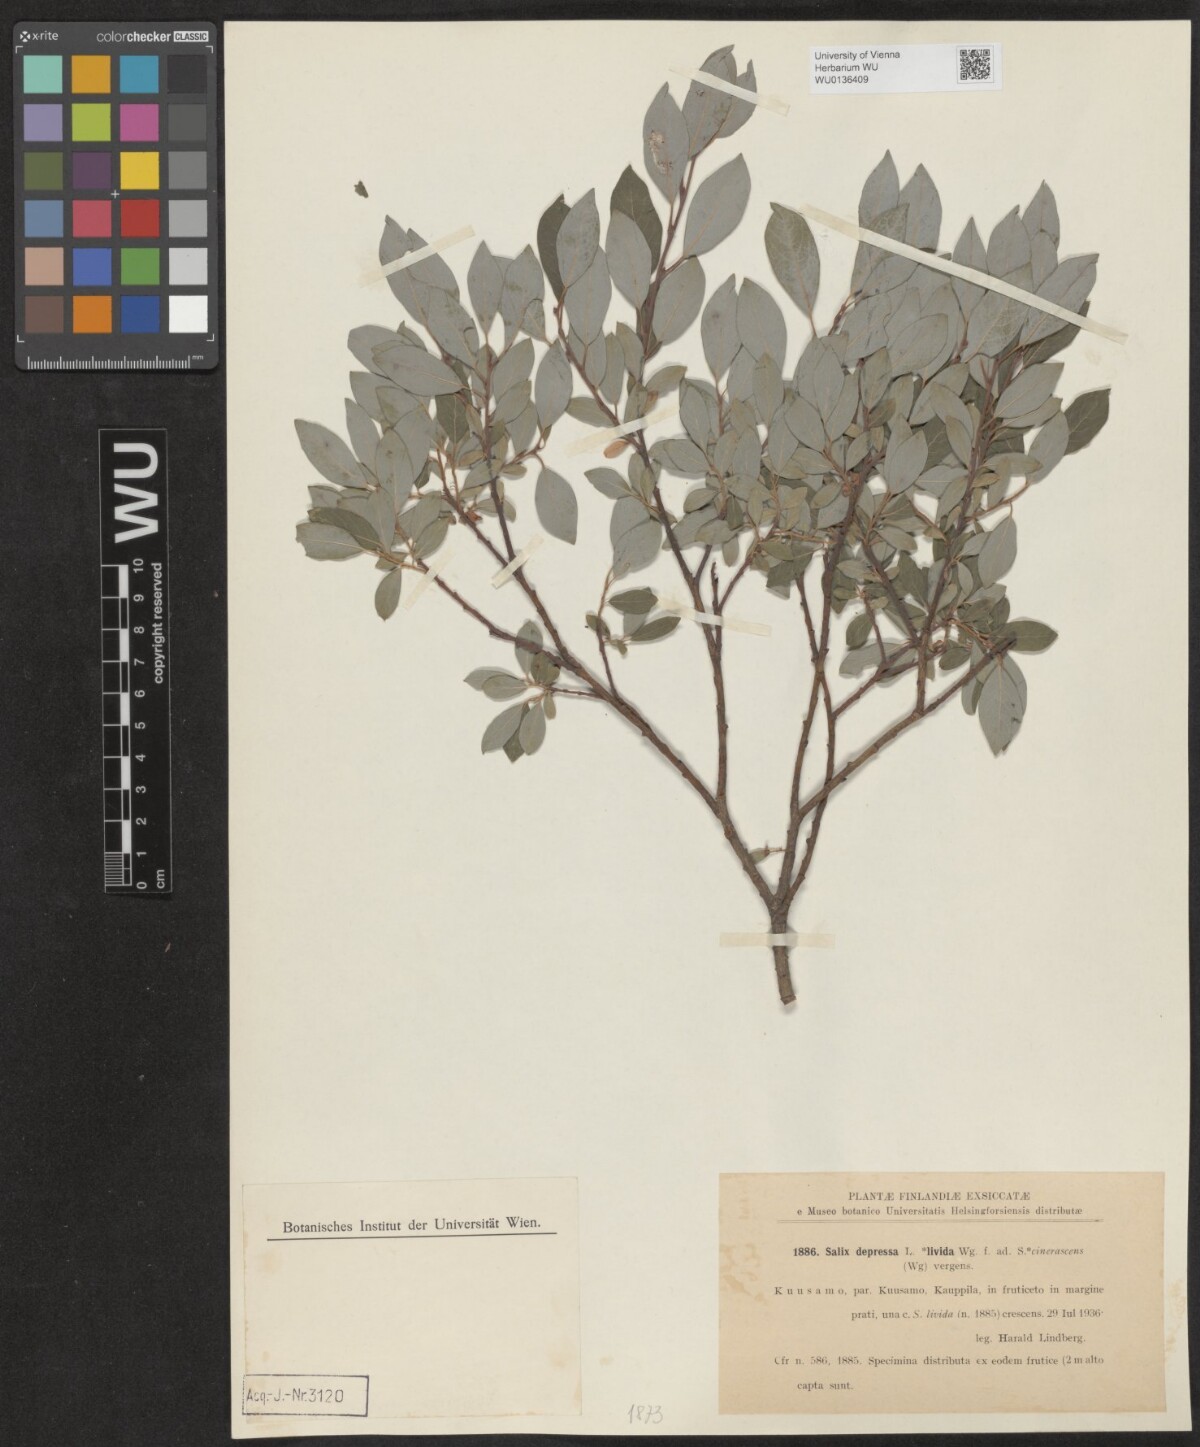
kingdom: Plantae
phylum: Tracheophyta
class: Magnoliopsida
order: Malpighiales
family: Salicaceae
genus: Salix
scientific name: Salix lanata
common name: Woolly willow
